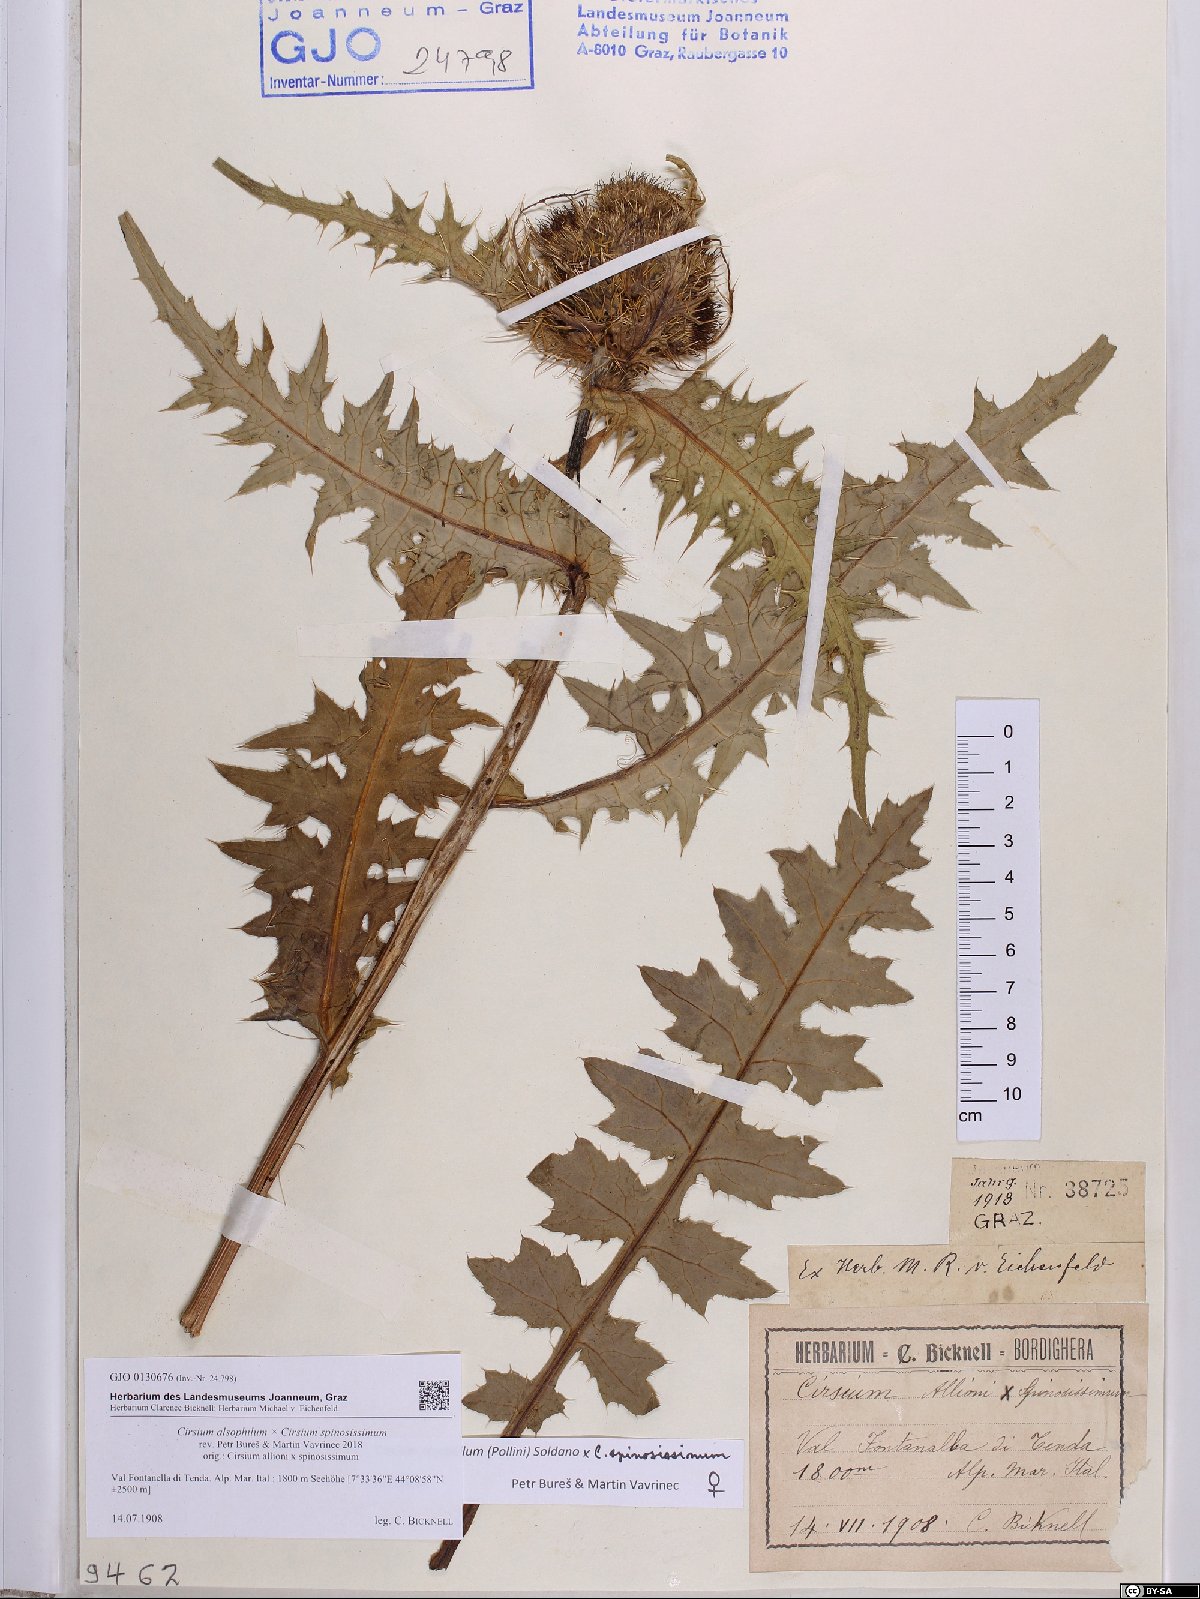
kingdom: Plantae
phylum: Tracheophyta
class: Magnoliopsida
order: Asterales
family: Asteraceae
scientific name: Asteraceae
